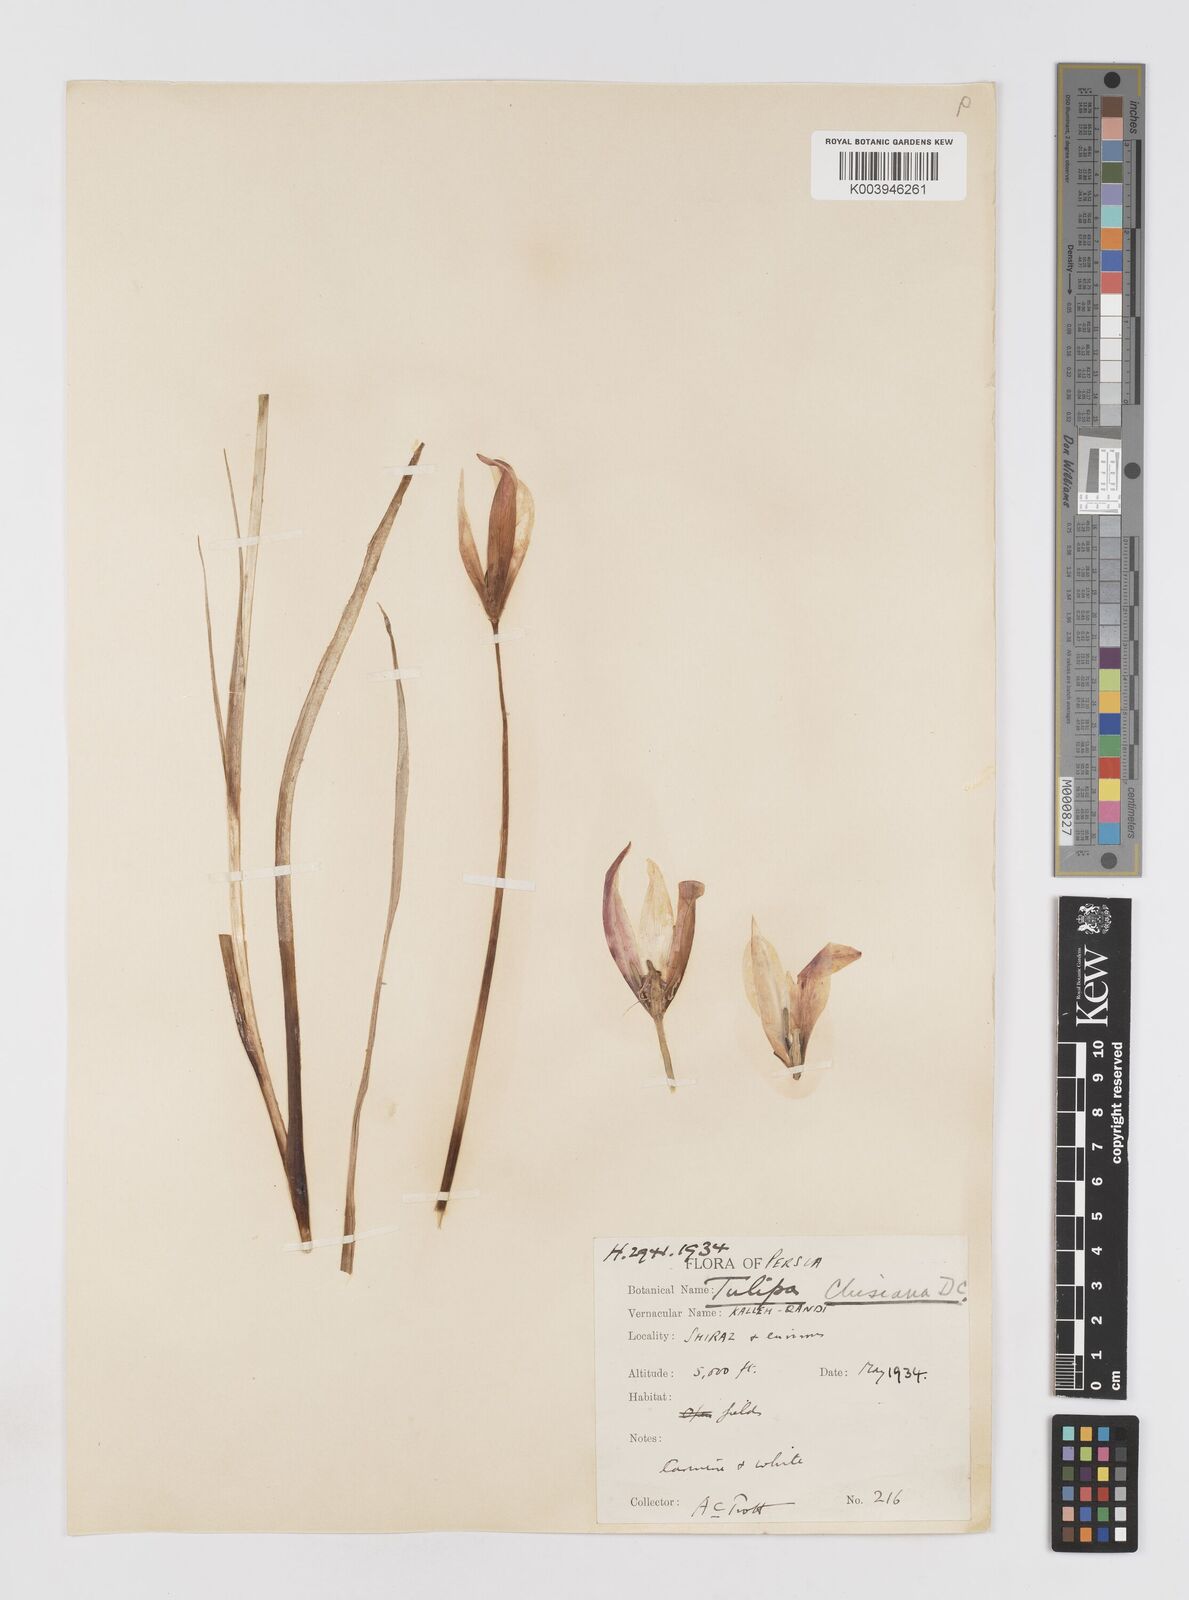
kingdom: Plantae
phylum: Tracheophyta
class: Liliopsida
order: Liliales
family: Liliaceae
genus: Tulipa
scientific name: Tulipa clusiana
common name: Lady tulip
